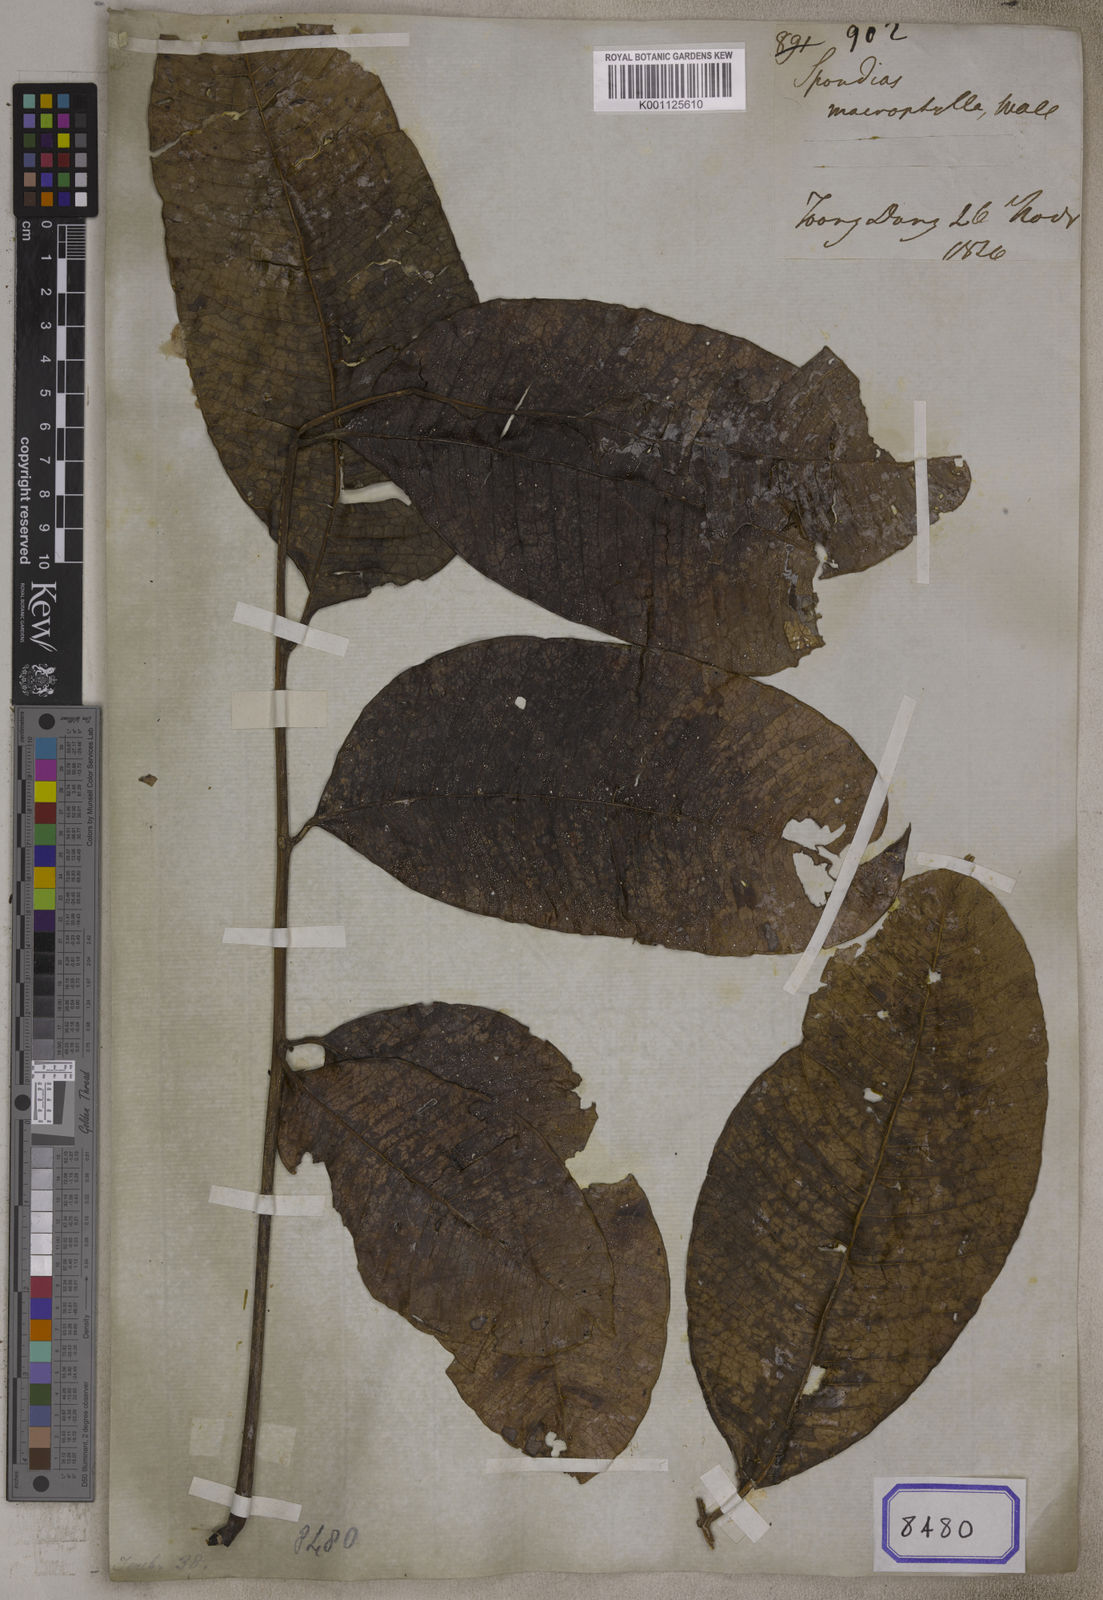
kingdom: Plantae
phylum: Tracheophyta
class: Magnoliopsida
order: Sapindales
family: Anacardiaceae
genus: Spondias
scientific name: Spondias pinnata
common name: Common hog-plum
